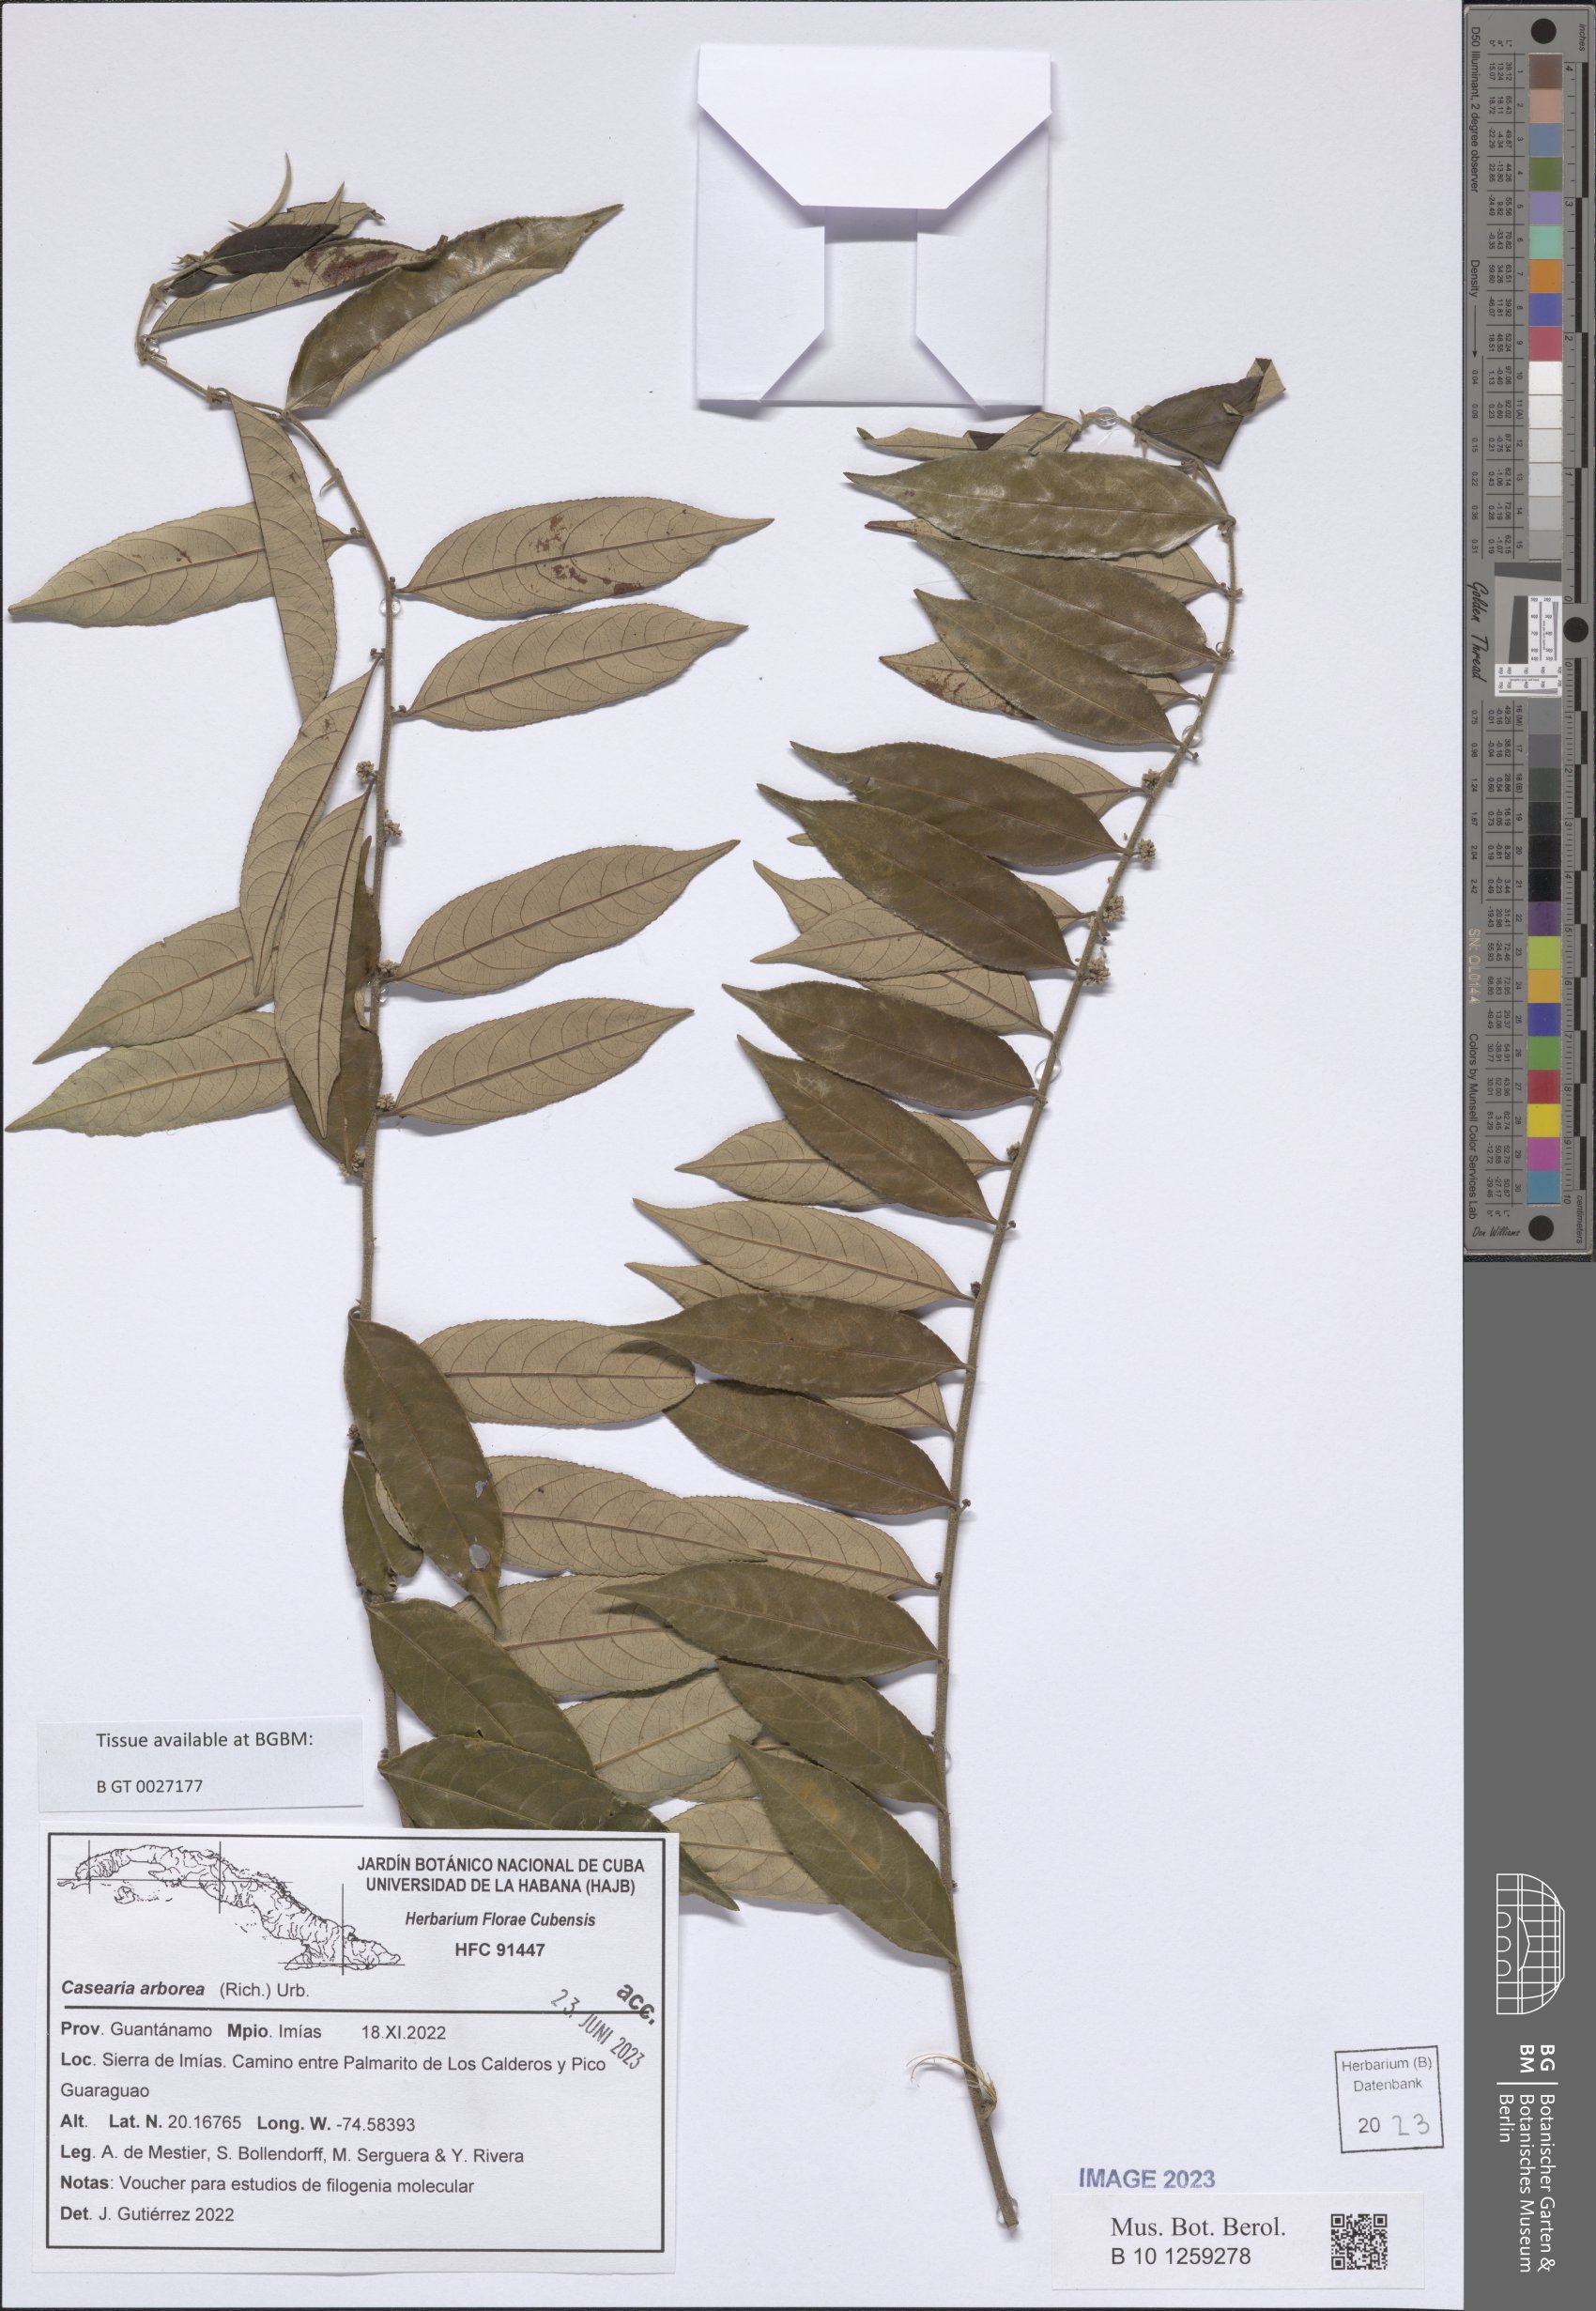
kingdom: Plantae
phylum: Tracheophyta
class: Magnoliopsida
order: Malpighiales
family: Salicaceae
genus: Casearia
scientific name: Casearia arborea
